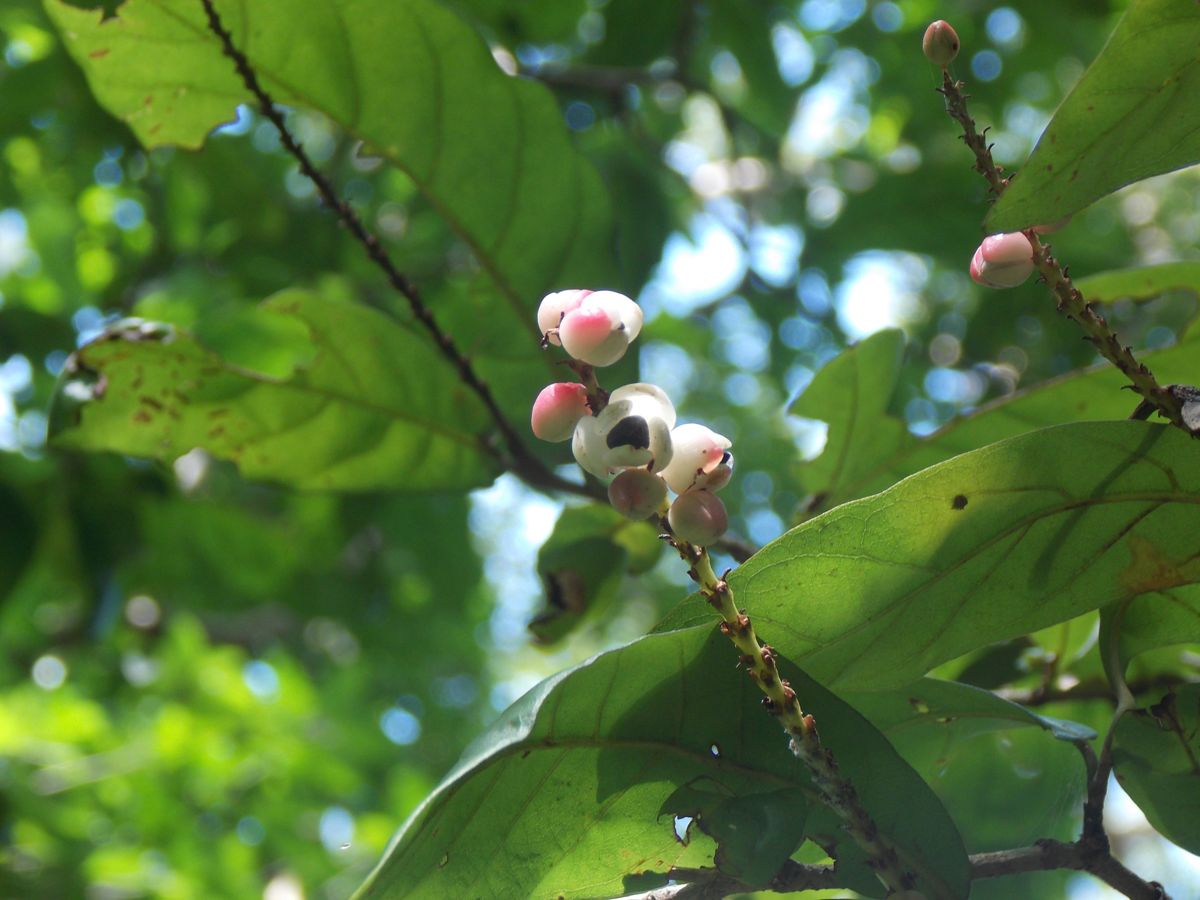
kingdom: Plantae
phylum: Tracheophyta
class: Magnoliopsida
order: Caryophyllales
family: Polygonaceae
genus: Coccoloba
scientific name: Coccoloba floribunda
